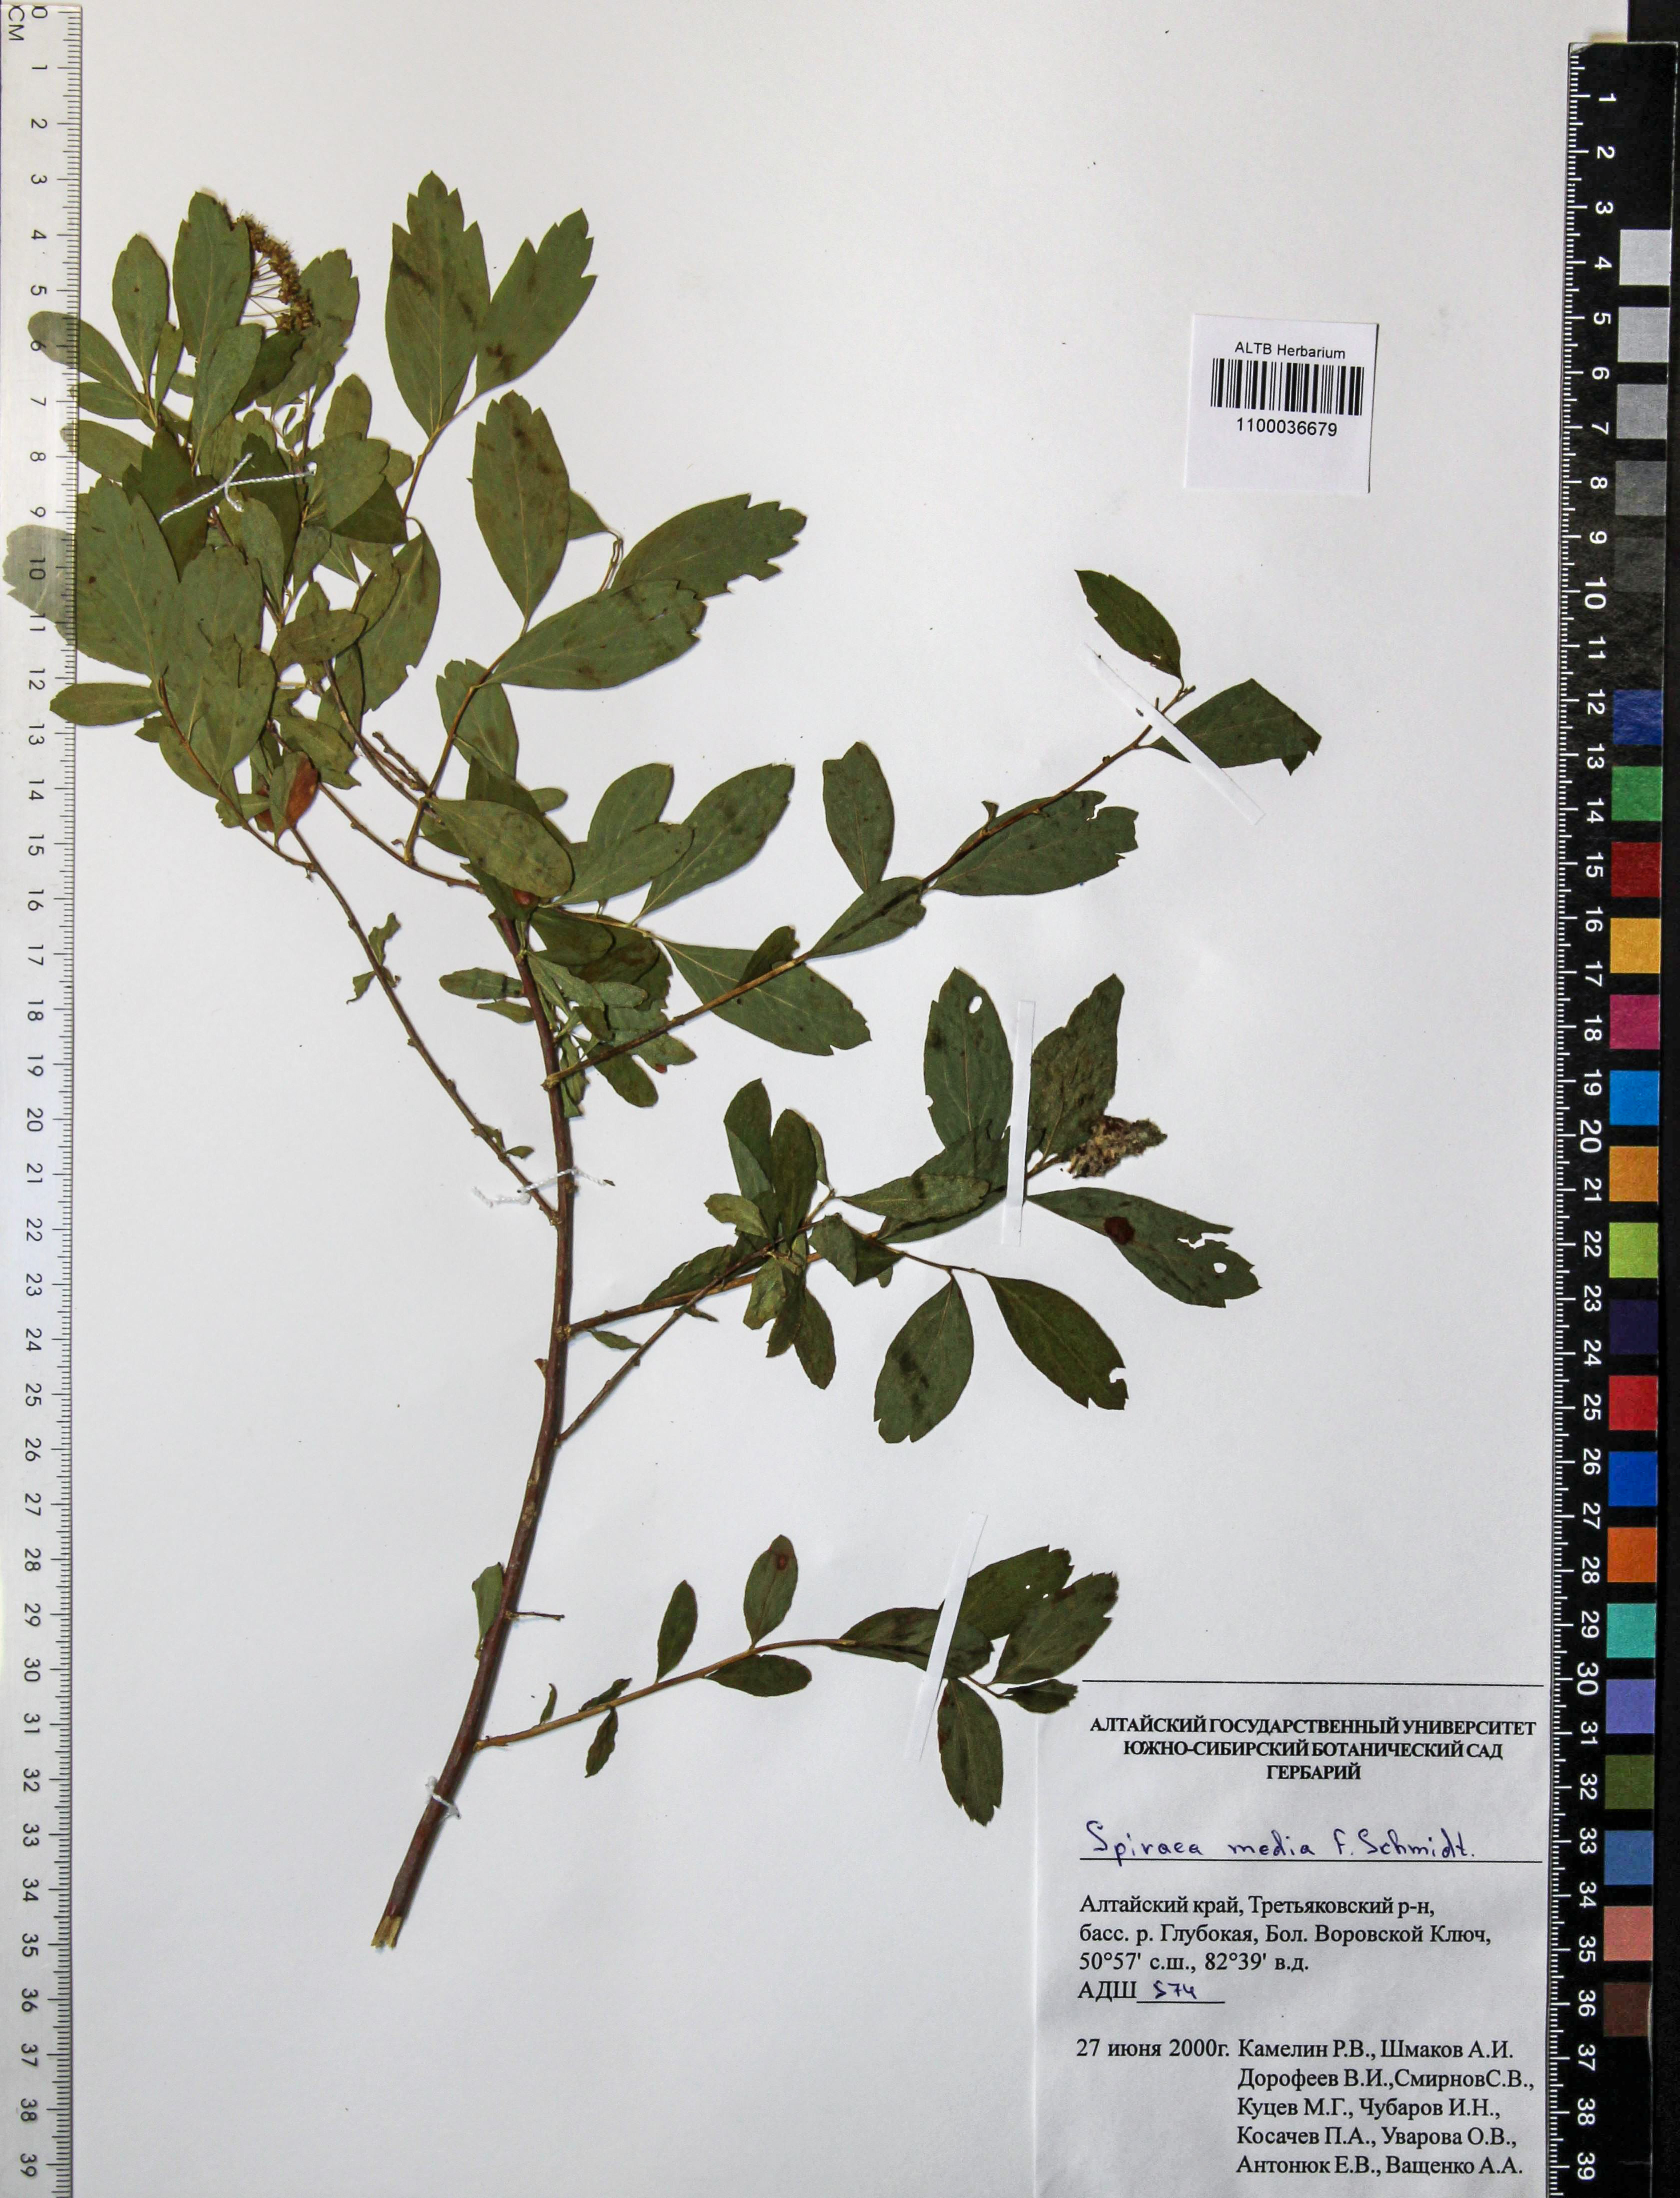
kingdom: Plantae
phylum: Tracheophyta
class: Magnoliopsida
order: Rosales
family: Rosaceae
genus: Spiraea
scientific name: Spiraea media
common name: Russian spiraea
